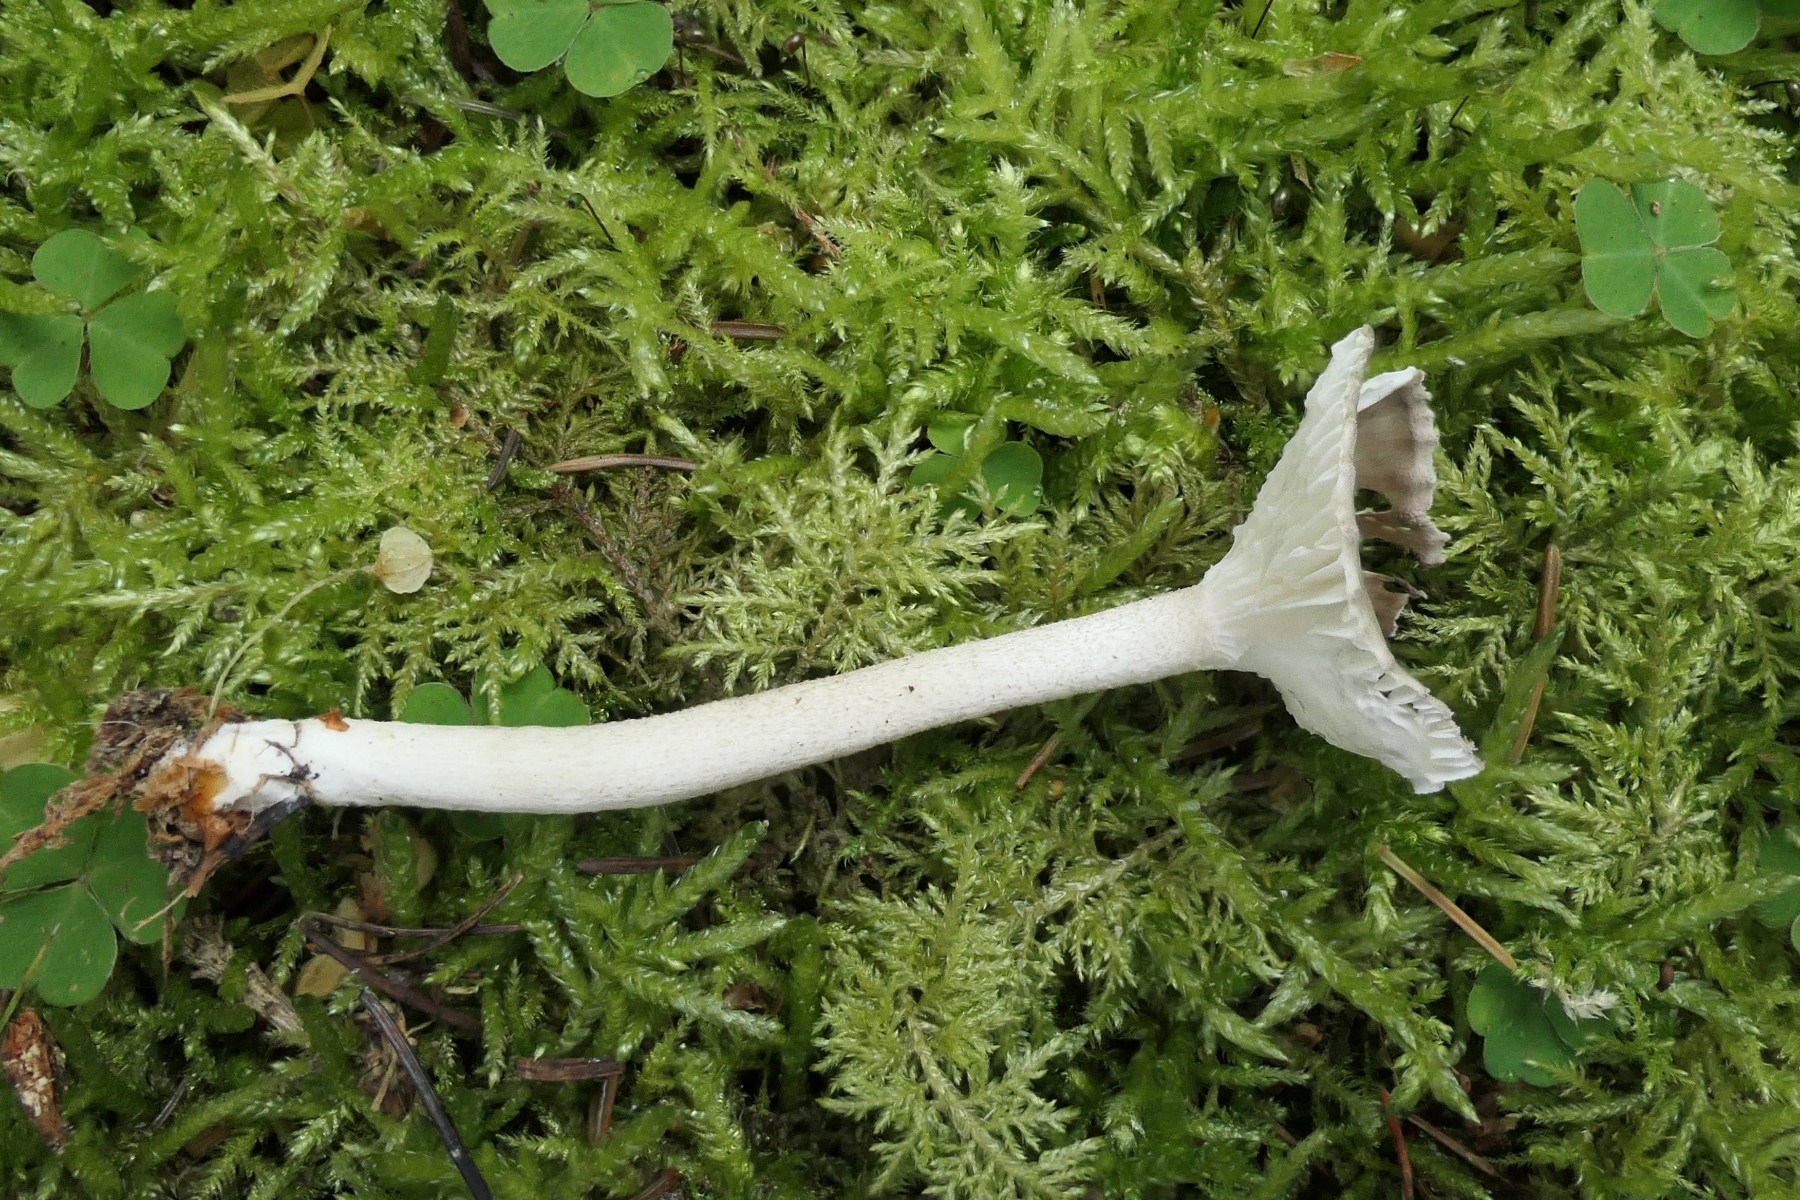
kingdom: Fungi
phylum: Basidiomycota
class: Agaricomycetes
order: Agaricales
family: Hygrophoraceae
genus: Hygrophorus
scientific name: Hygrophorus pustulatus
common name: mørkprikket sneglehat
